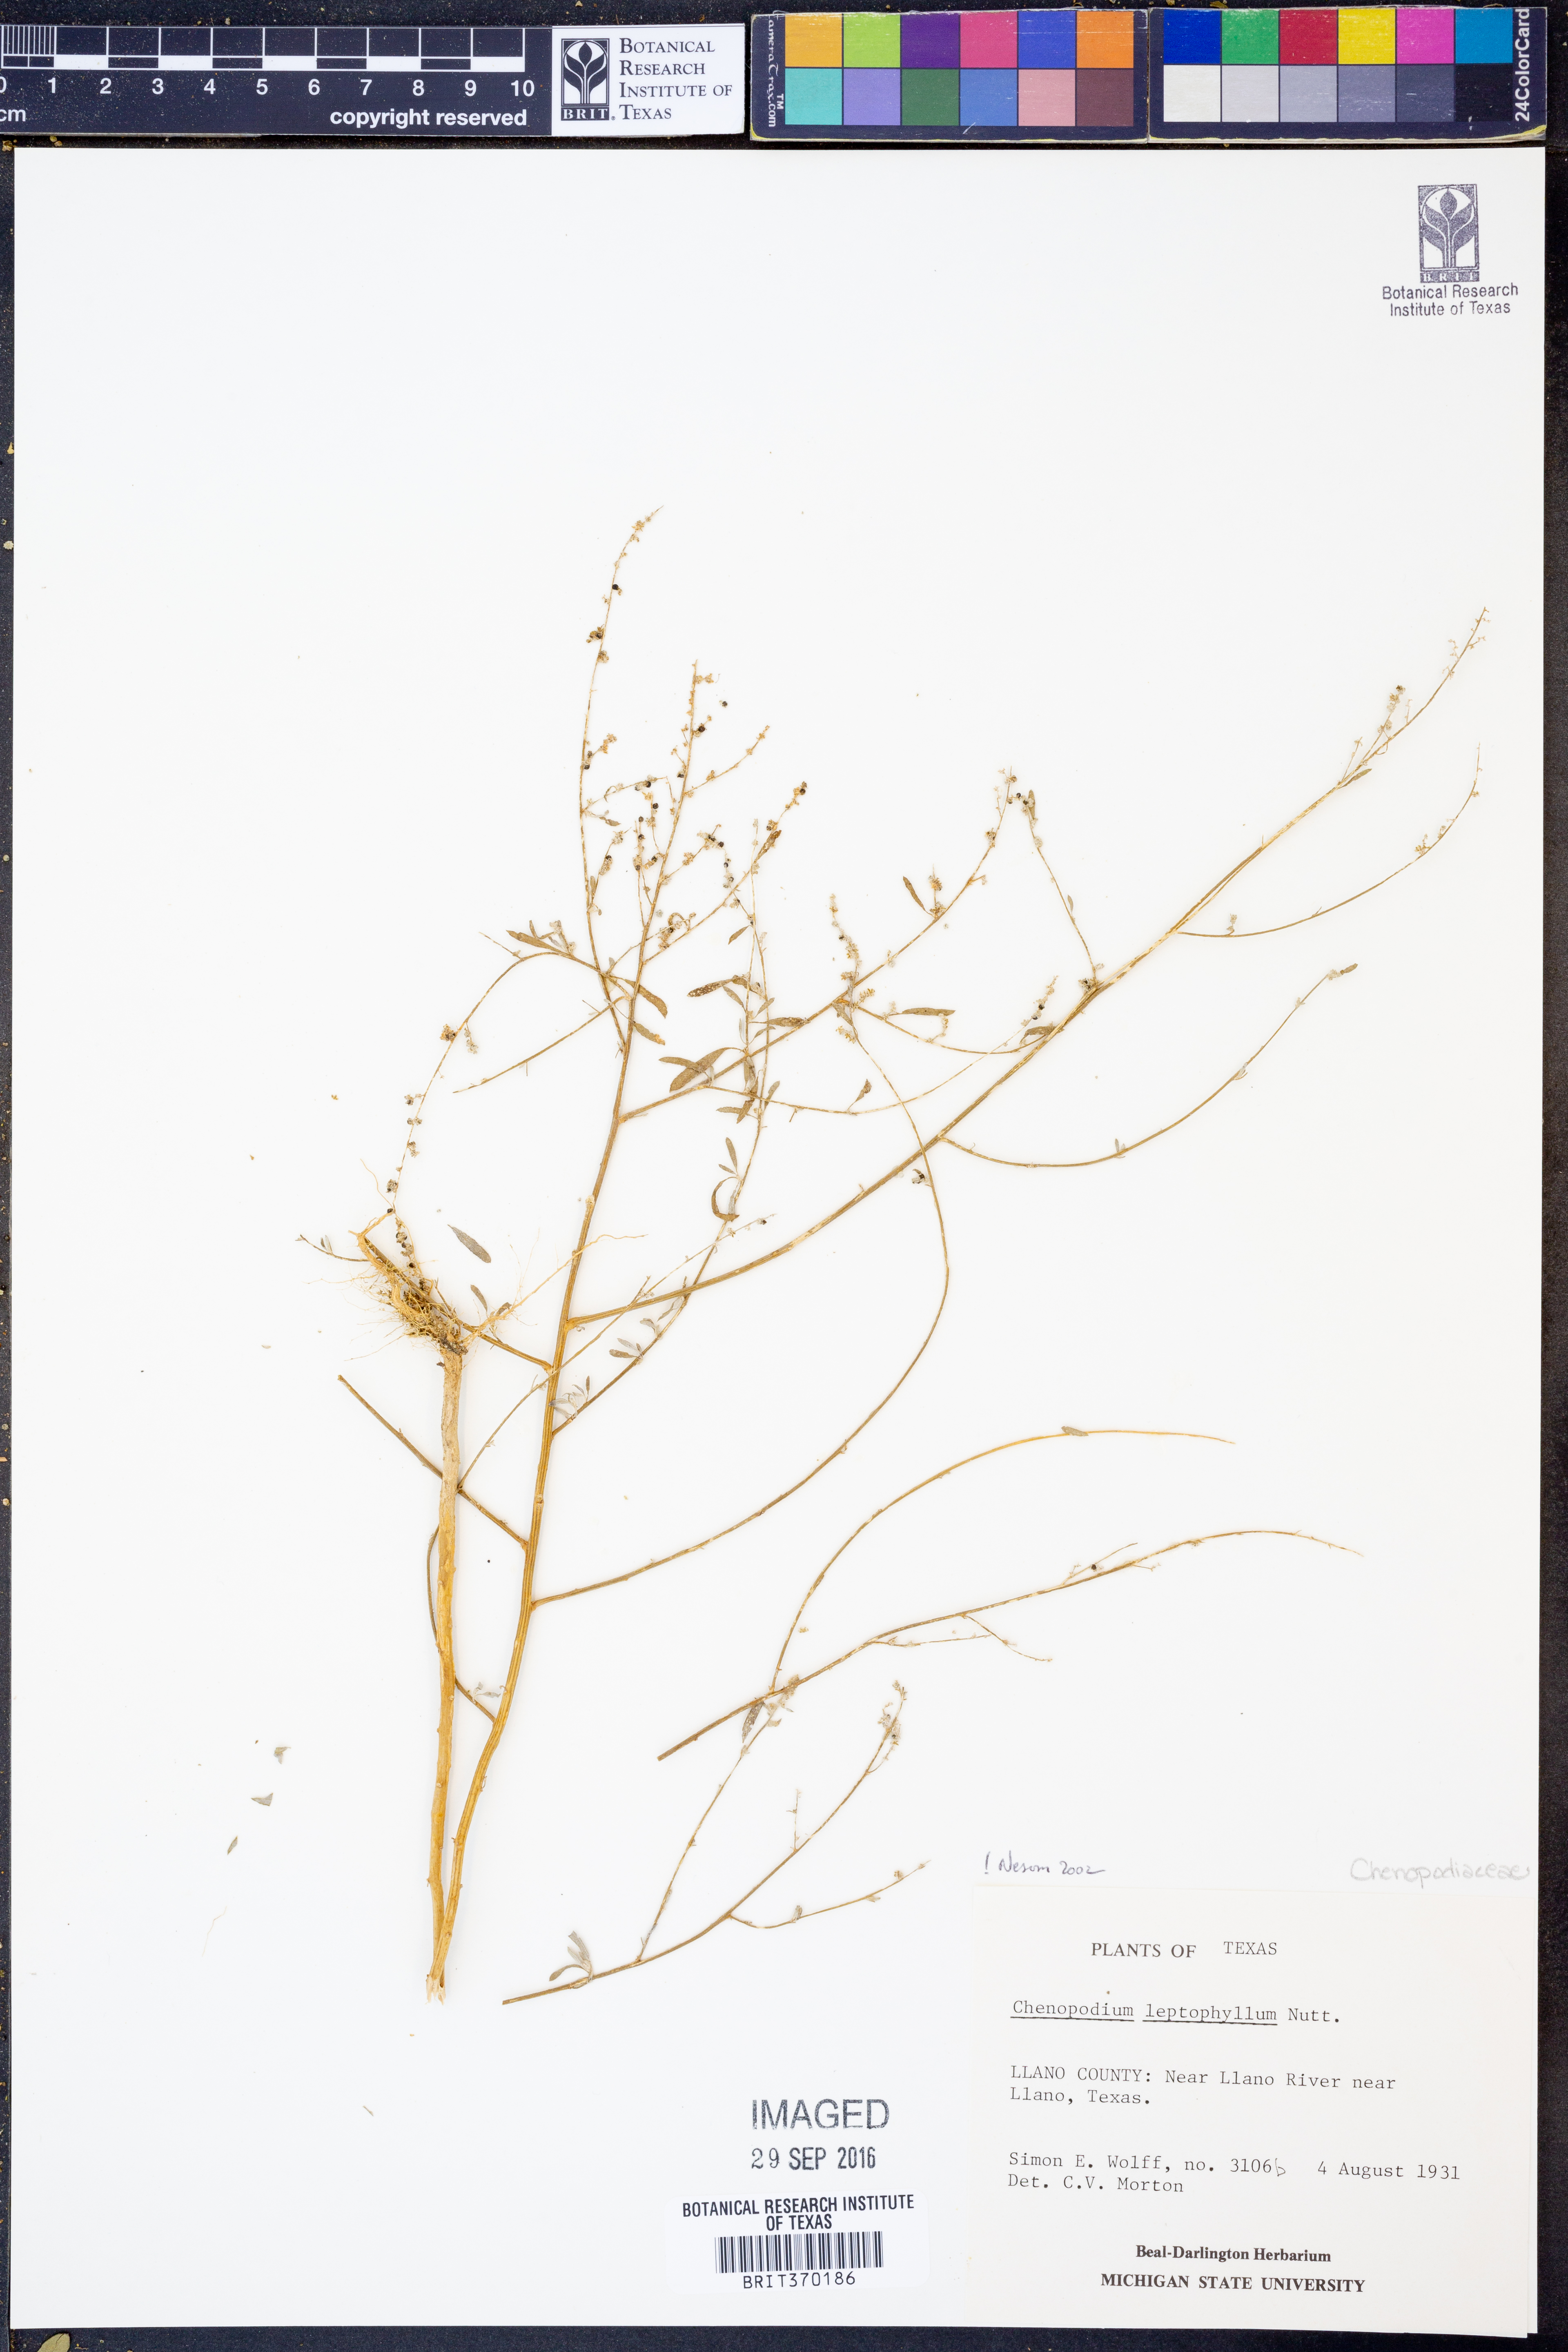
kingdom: Plantae
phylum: Tracheophyta
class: Magnoliopsida
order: Caryophyllales
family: Amaranthaceae
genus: Chenopodium
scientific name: Chenopodium leptophyllum
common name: Narrow-leaf goosefoot
